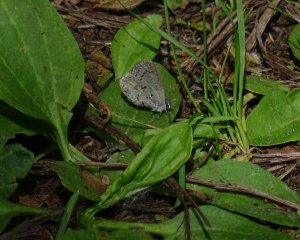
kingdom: Animalia
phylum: Arthropoda
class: Insecta
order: Lepidoptera
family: Lycaenidae
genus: Celastrina
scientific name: Celastrina lucia
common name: Northern Spring Azure
